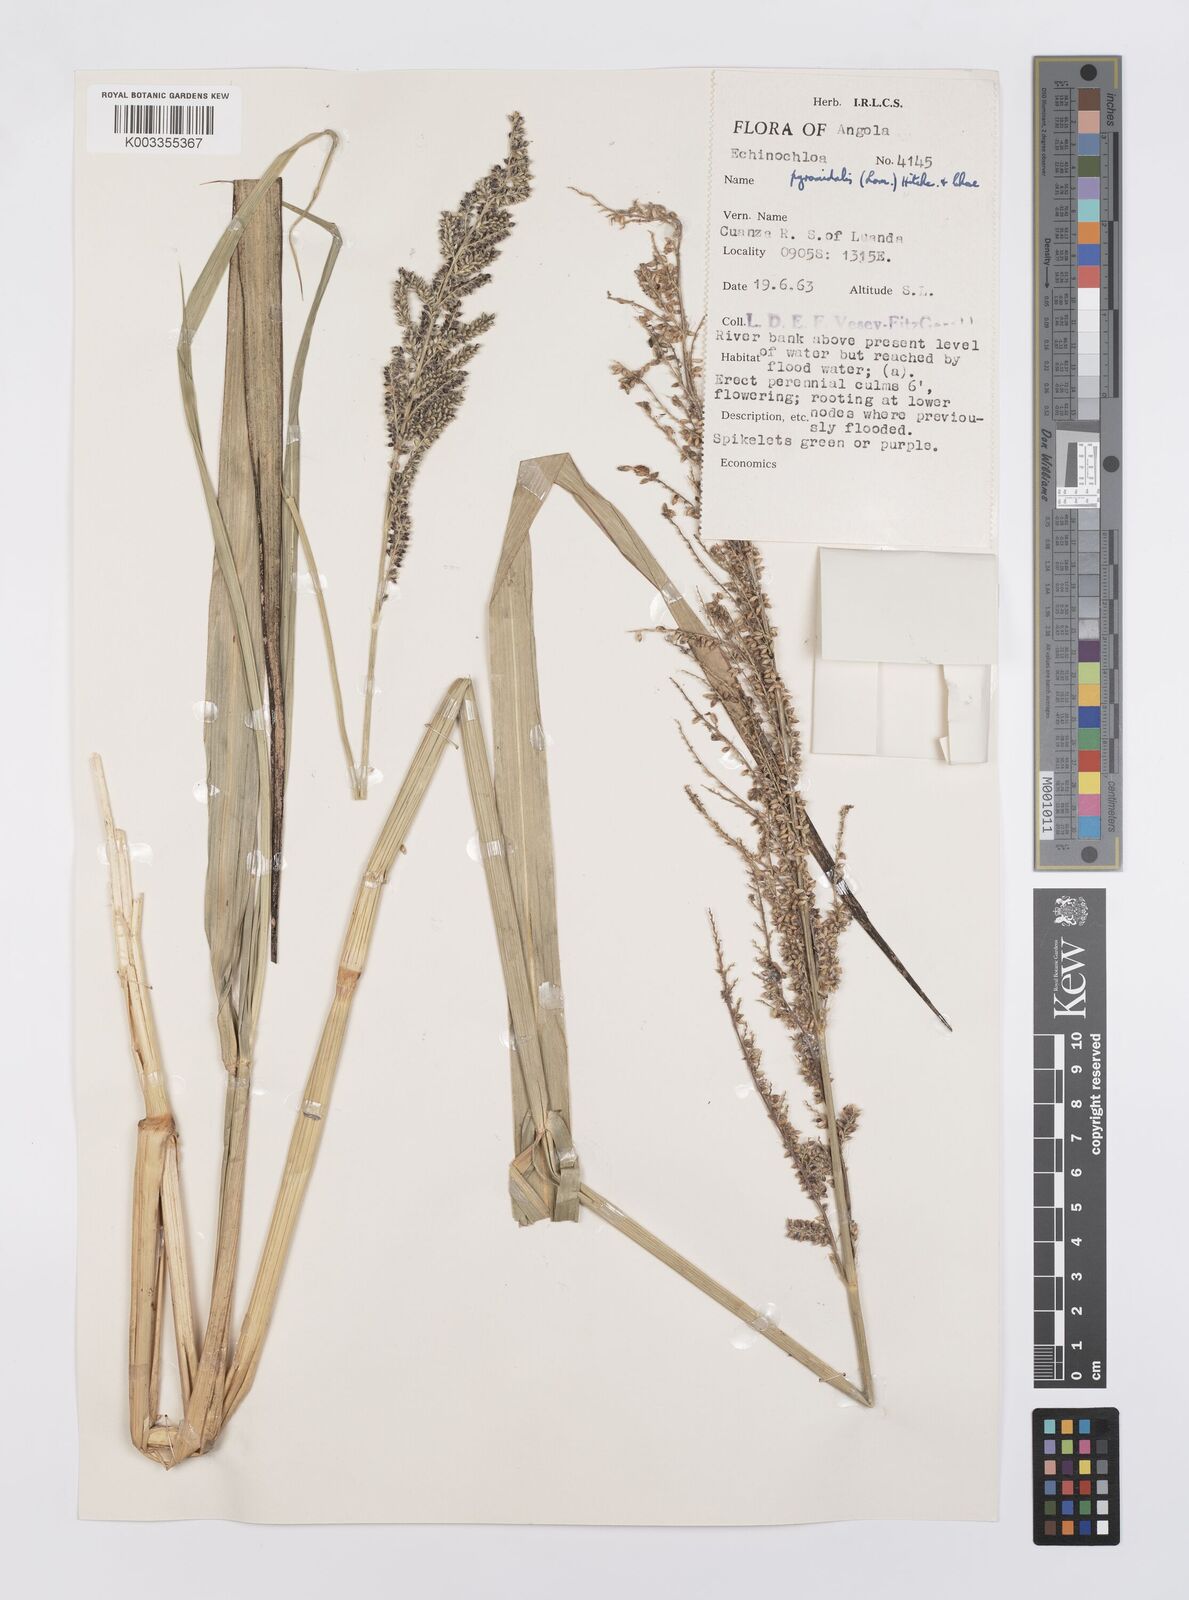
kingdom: Plantae
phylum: Tracheophyta
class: Liliopsida
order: Poales
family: Poaceae
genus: Echinochloa
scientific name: Echinochloa pyramidalis
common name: Antelope grass
